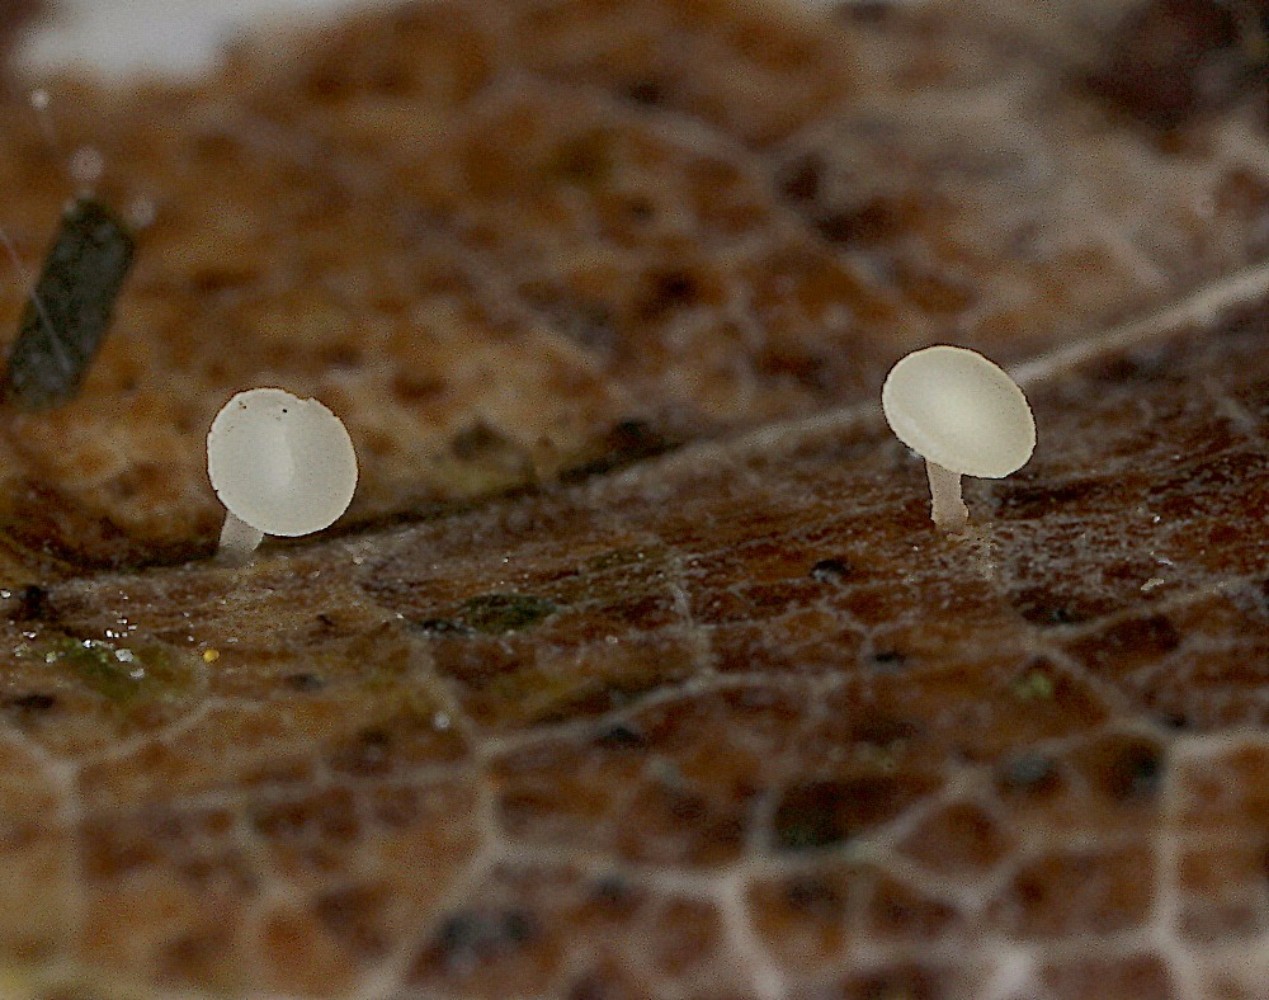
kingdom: Fungi
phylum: Ascomycota
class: Leotiomycetes
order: Helotiales
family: Helotiaceae
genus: Hymenoscyphus
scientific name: Hymenoscyphus caudatus
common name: blad-stilkskive
